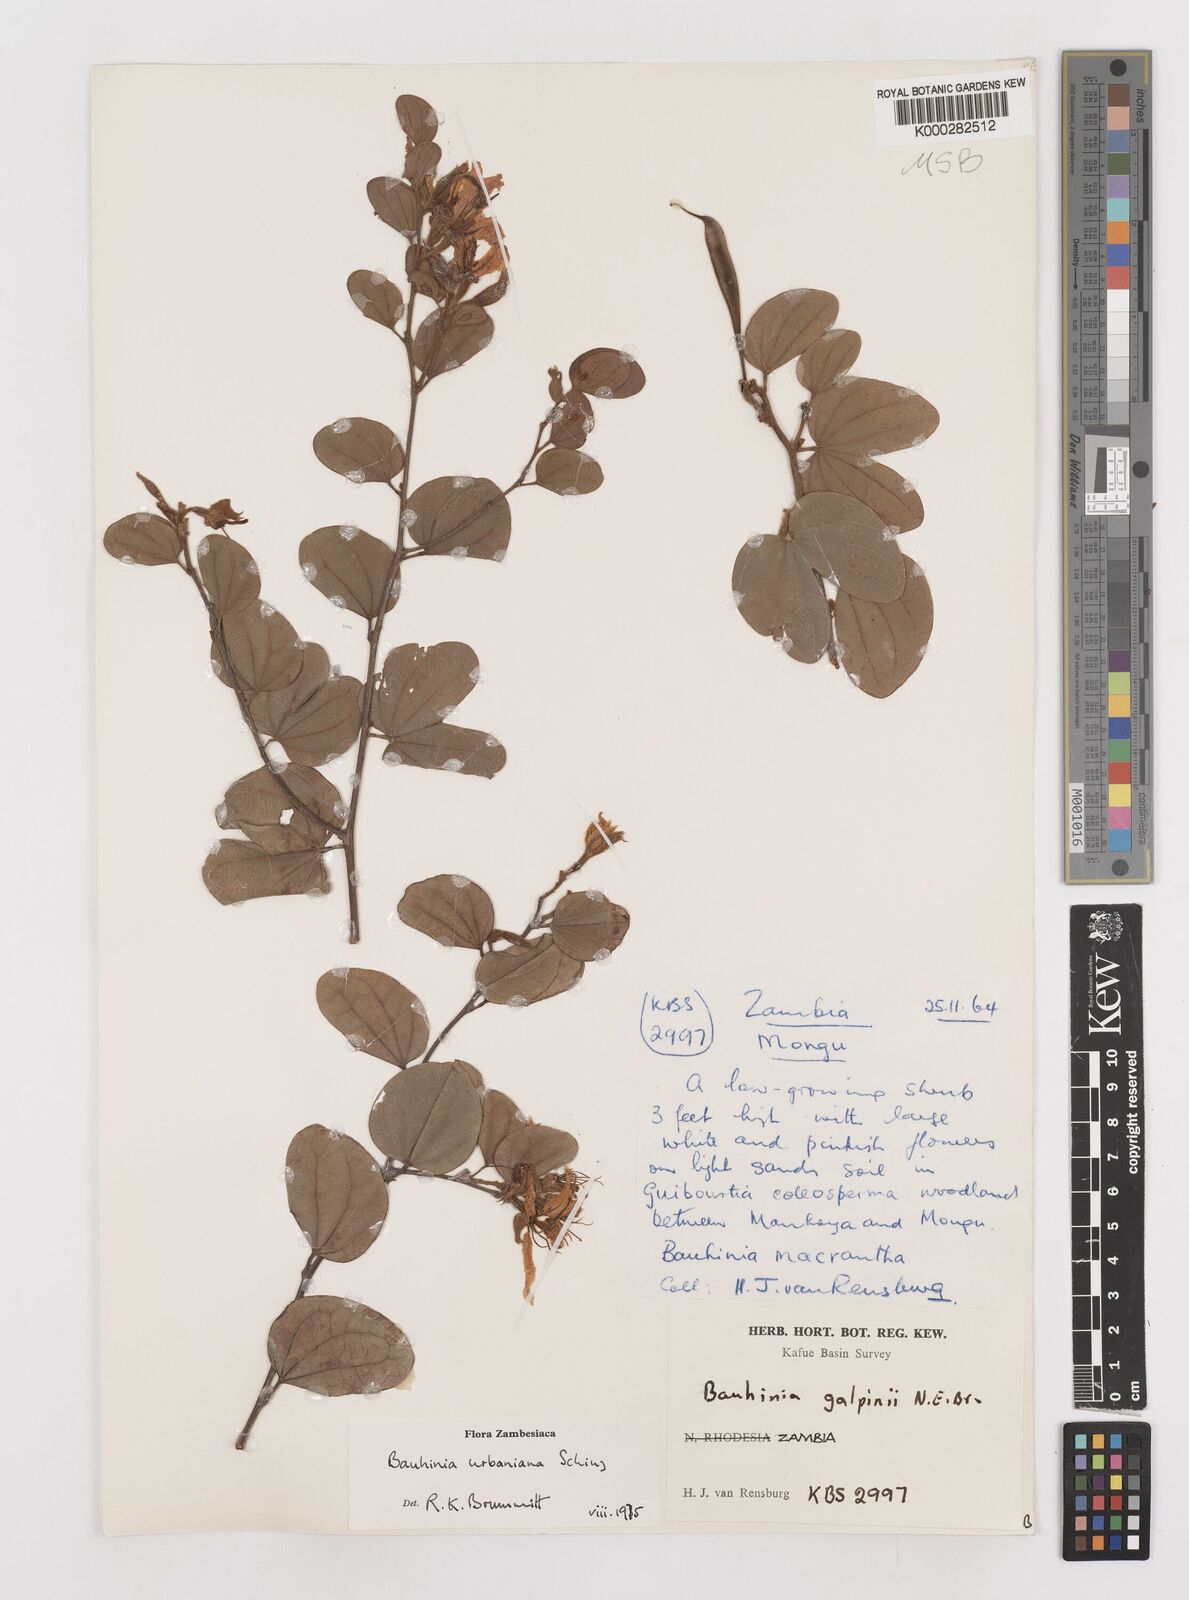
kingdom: Plantae
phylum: Tracheophyta
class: Magnoliopsida
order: Fabales
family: Fabaceae
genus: Bauhinia
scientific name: Bauhinia urbaniana
